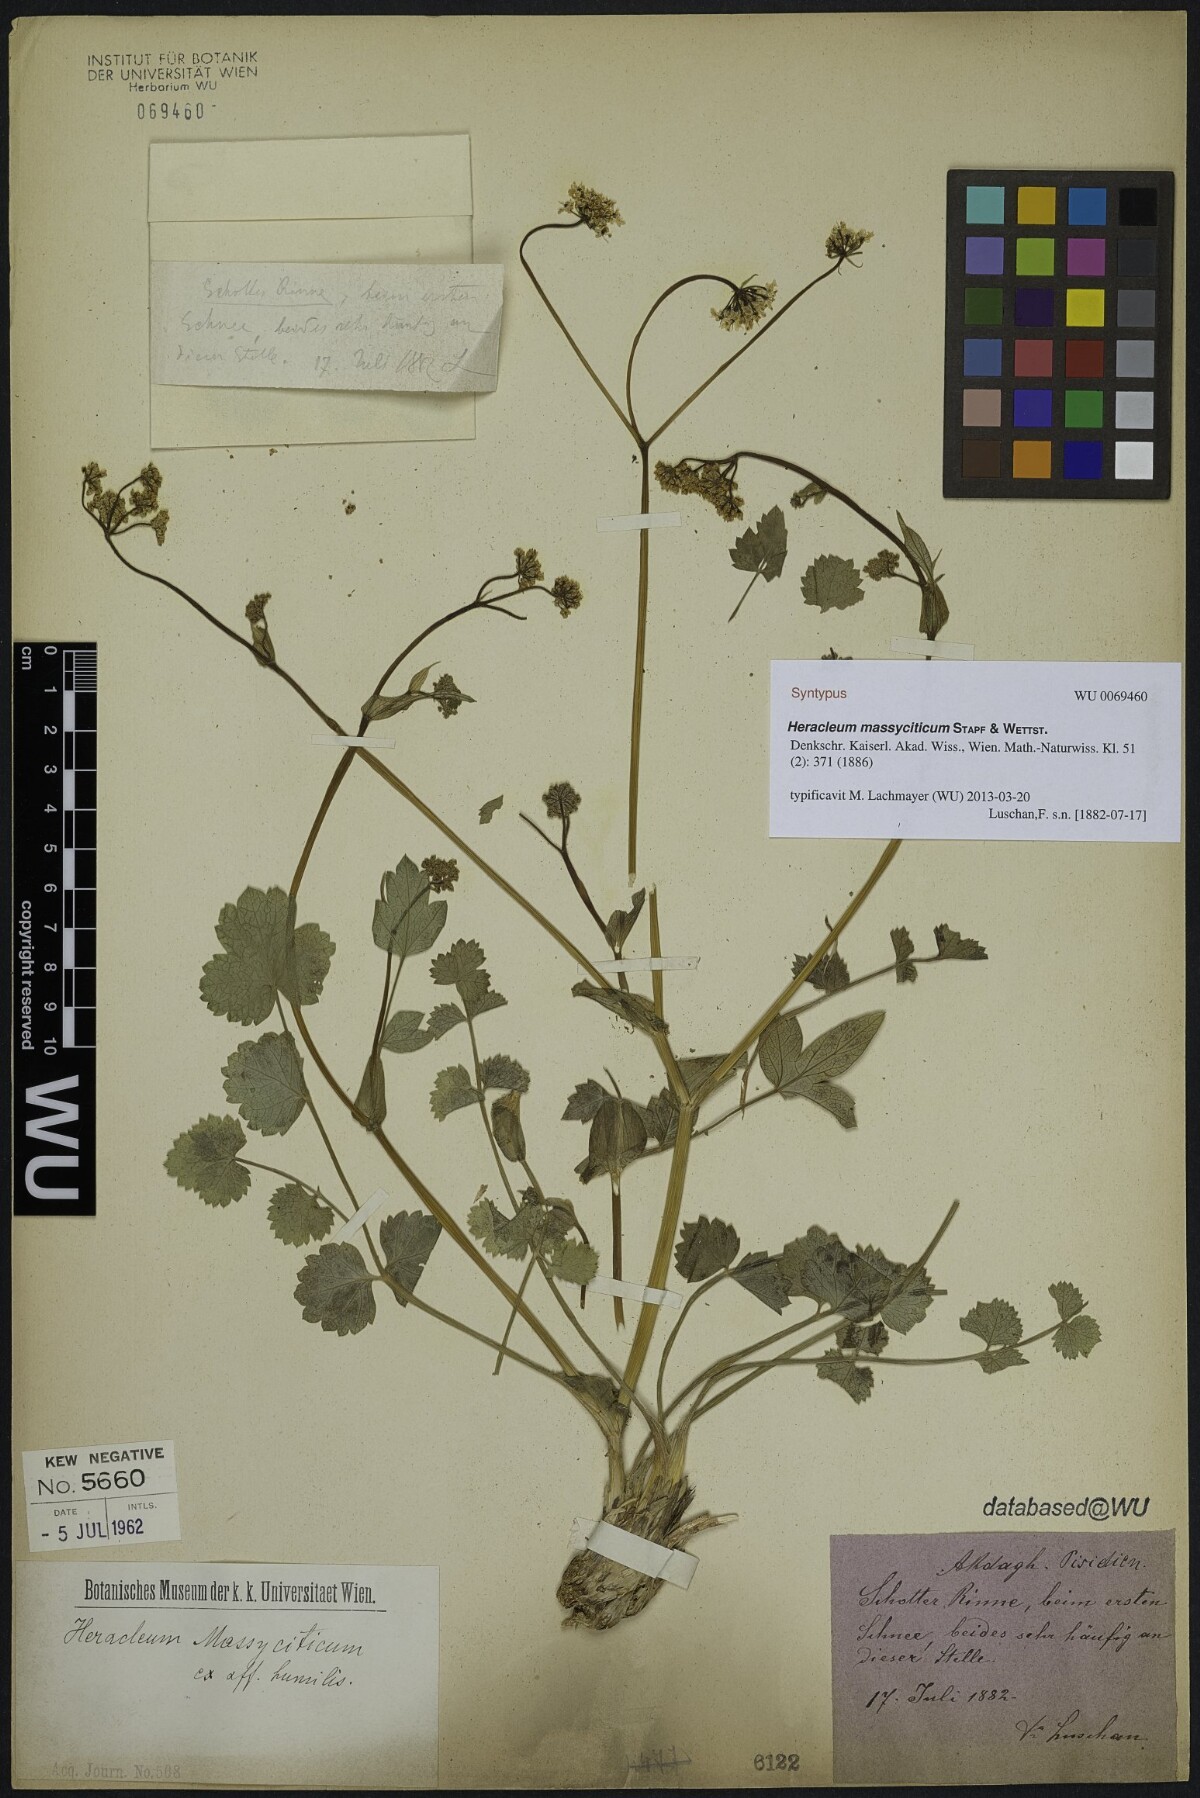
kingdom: Plantae
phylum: Tracheophyta
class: Magnoliopsida
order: Apiales
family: Apiaceae
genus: Heracleum
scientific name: Heracleum humile
